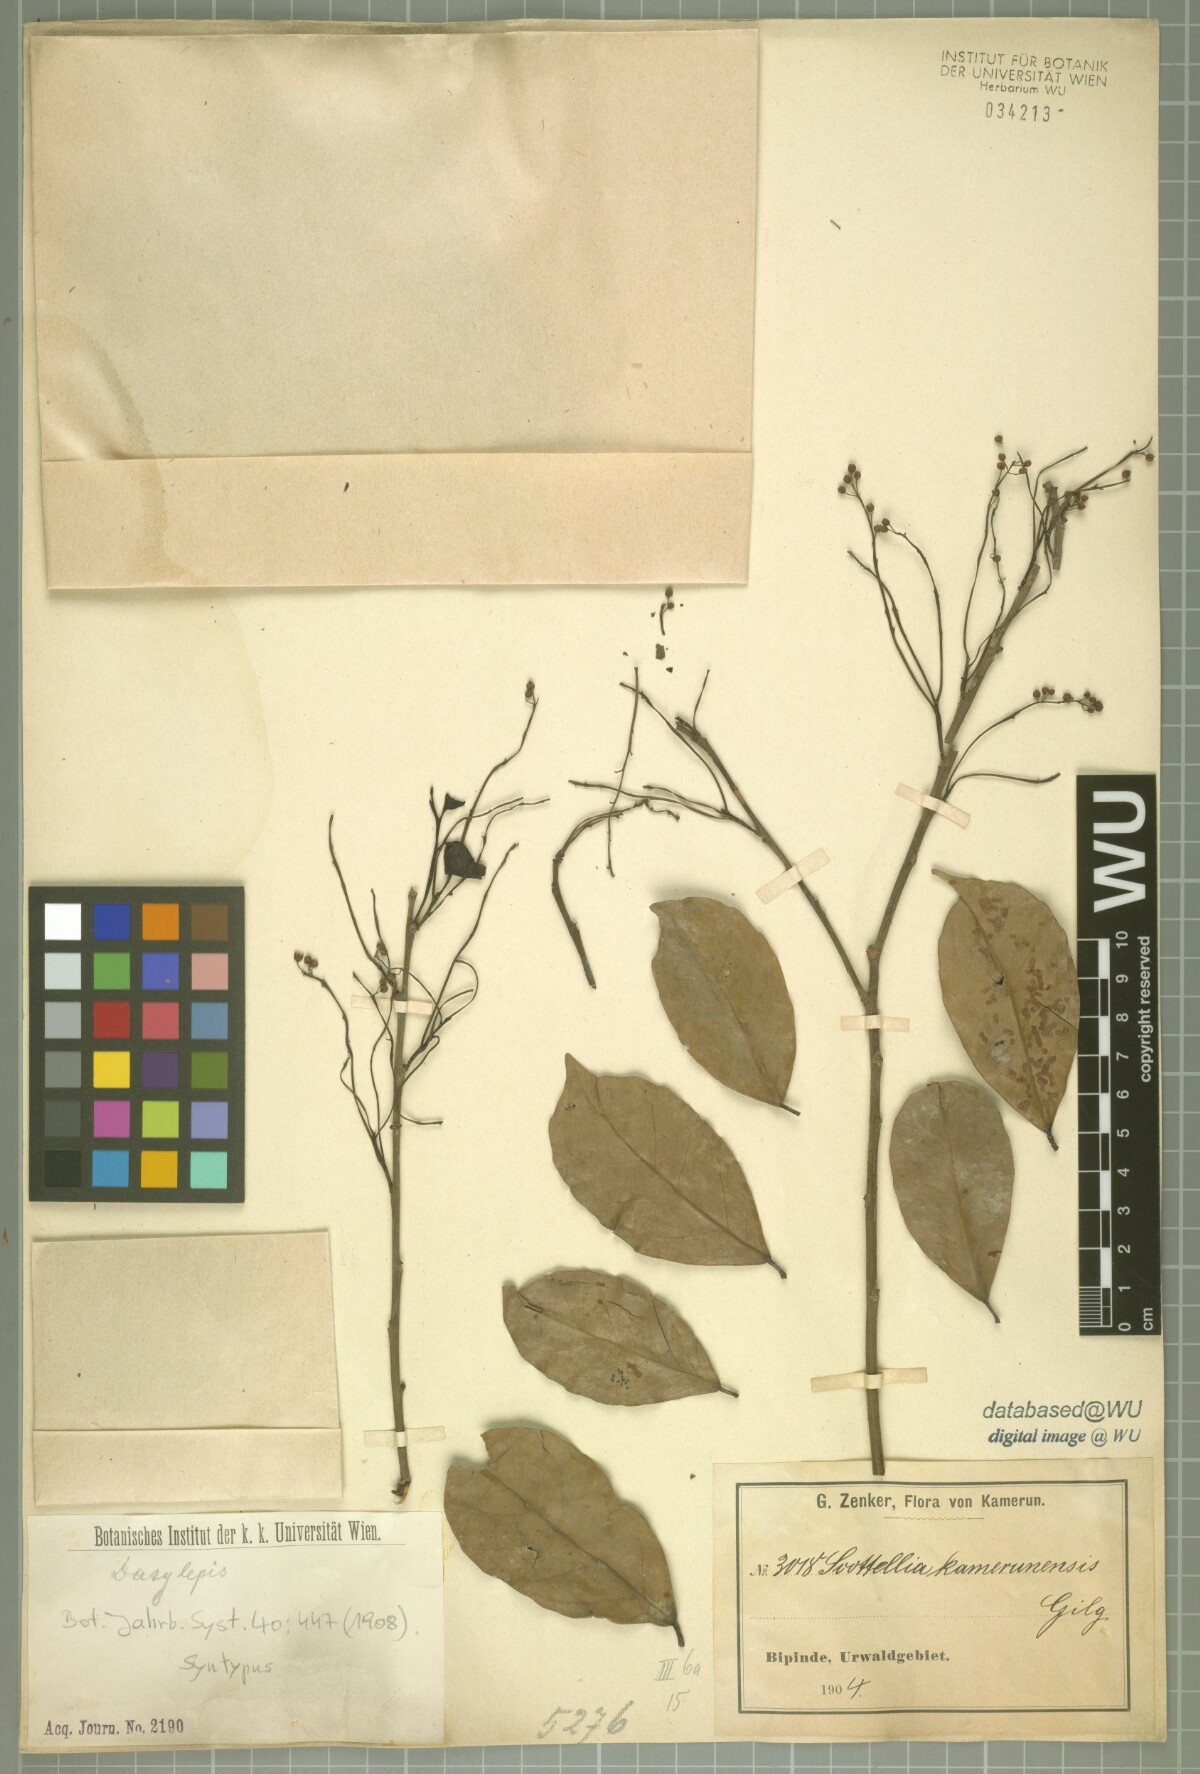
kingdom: Plantae
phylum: Tracheophyta
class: Magnoliopsida
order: Malpighiales
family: Achariaceae
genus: Scottellia
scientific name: Scottellia klaineana
